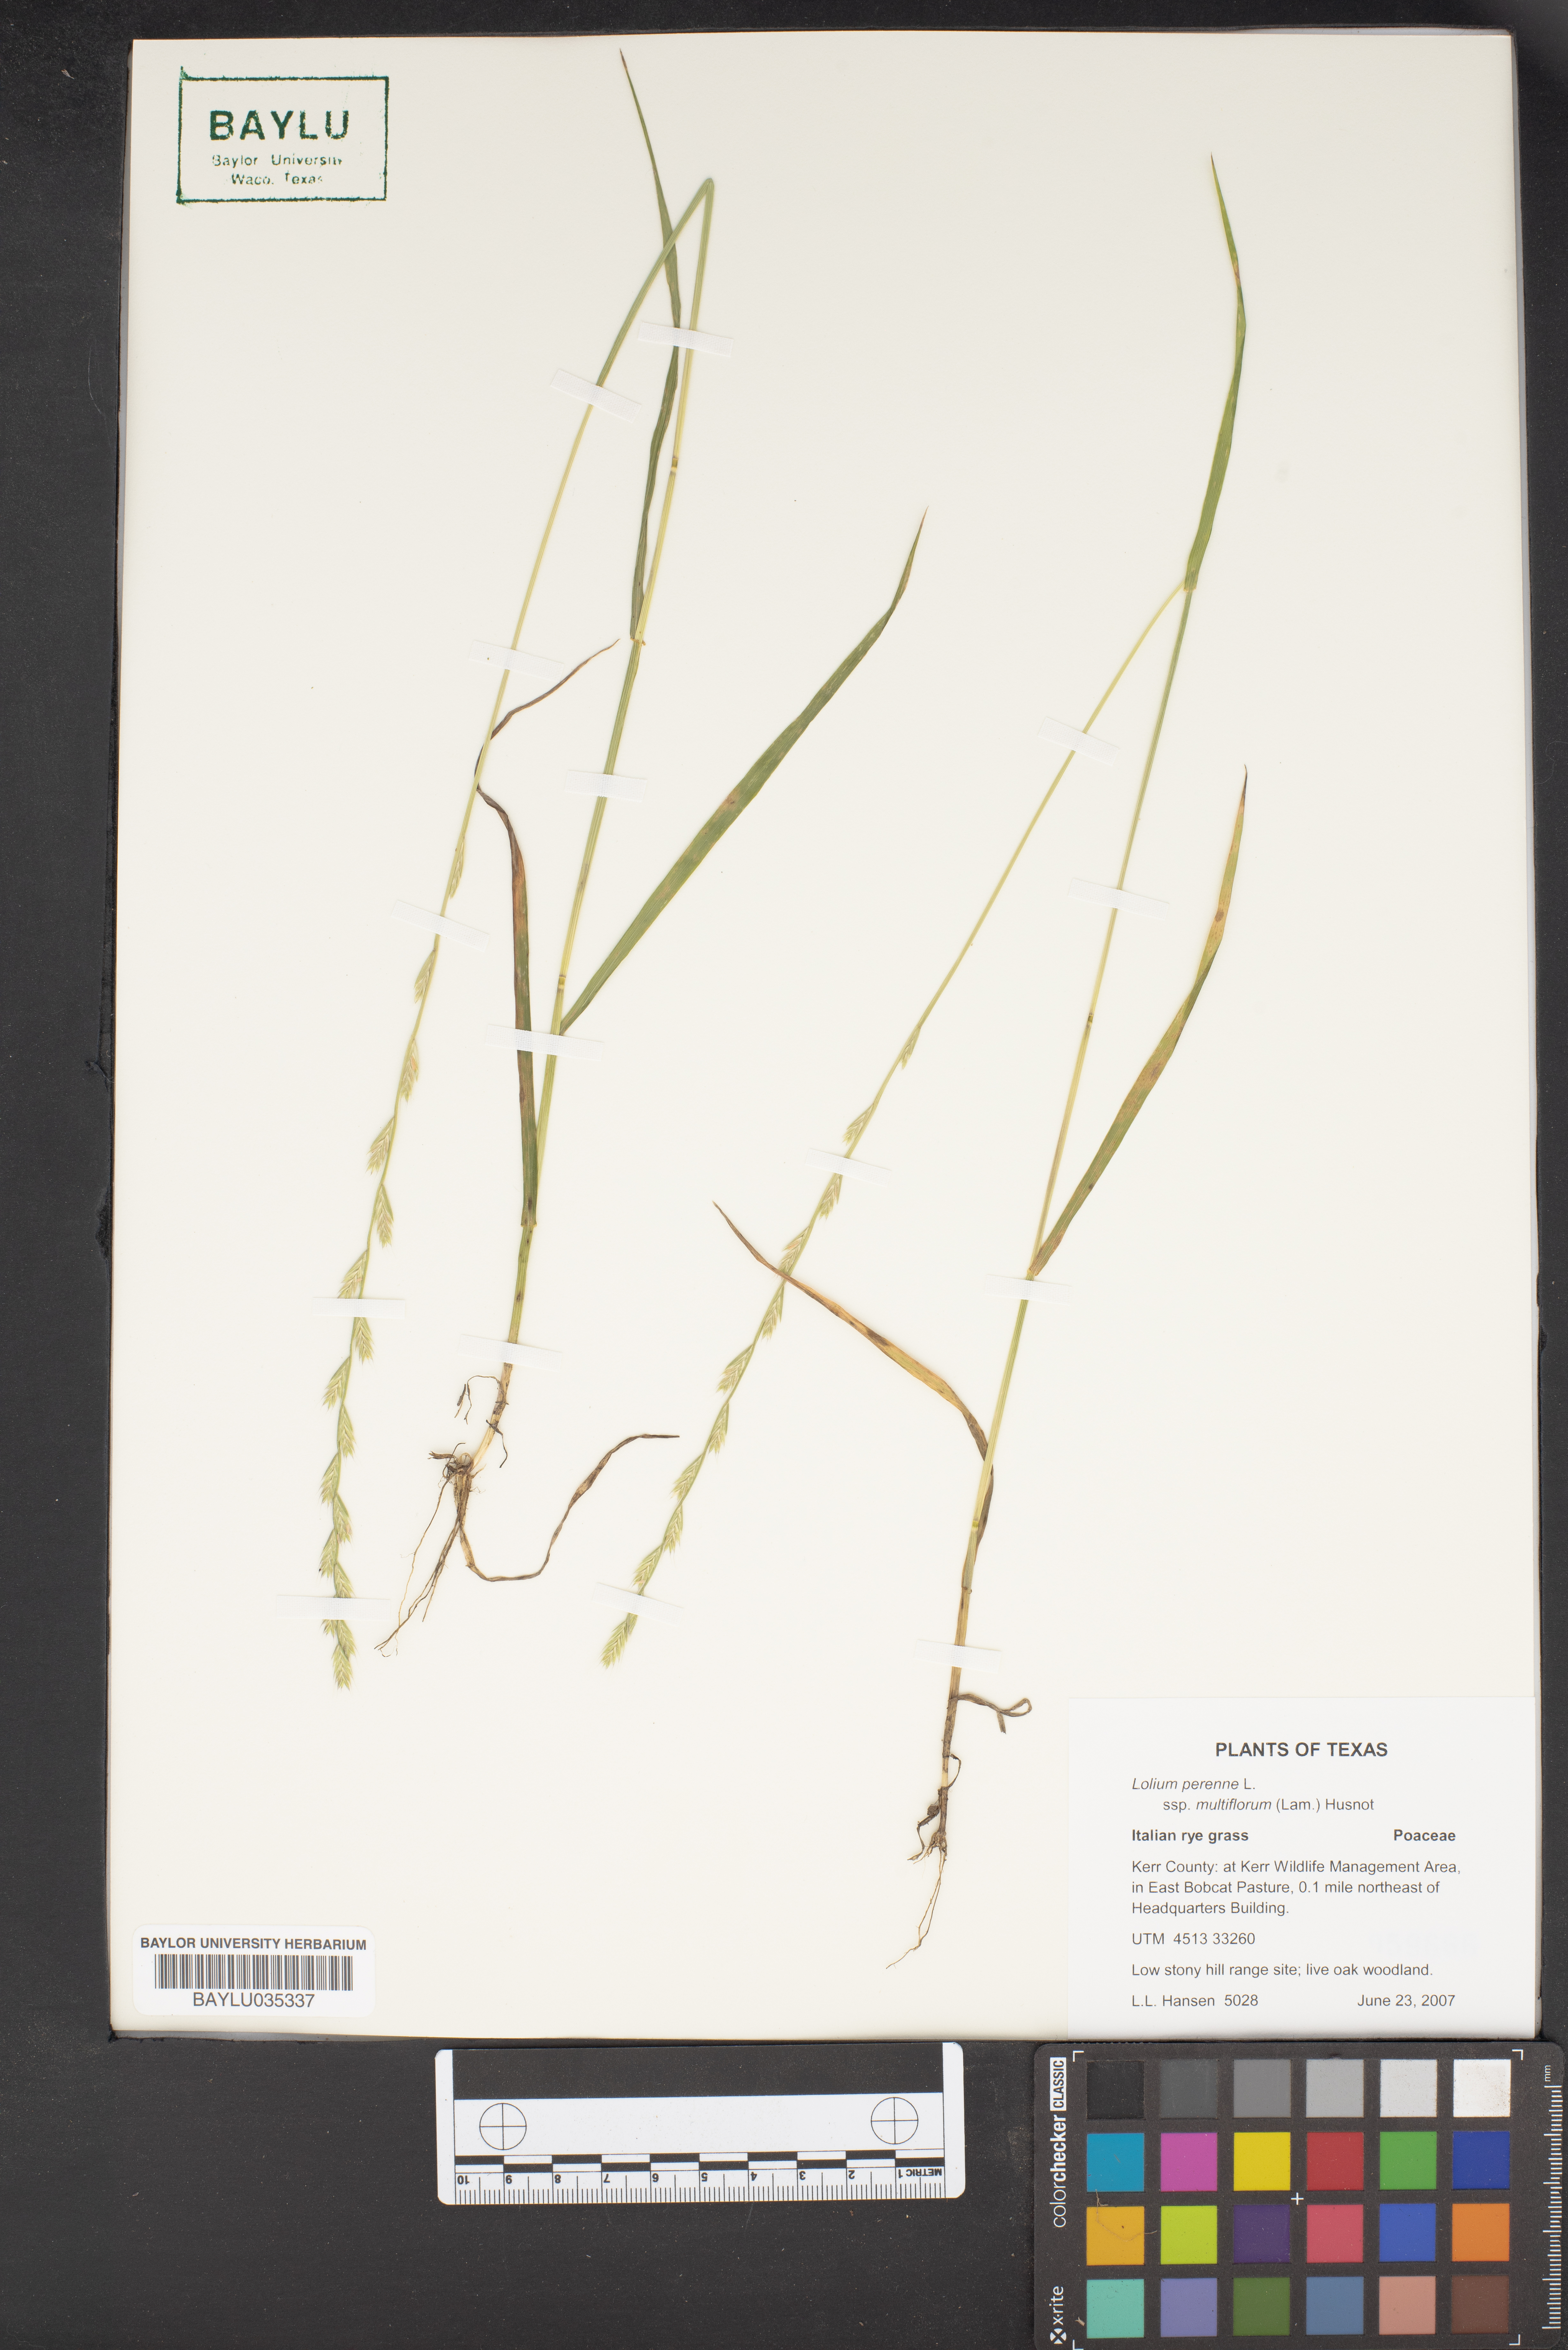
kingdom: Plantae
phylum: Tracheophyta
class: Liliopsida
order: Poales
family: Poaceae
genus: Lolium
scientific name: Lolium multiflorum
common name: Annual ryegrass
